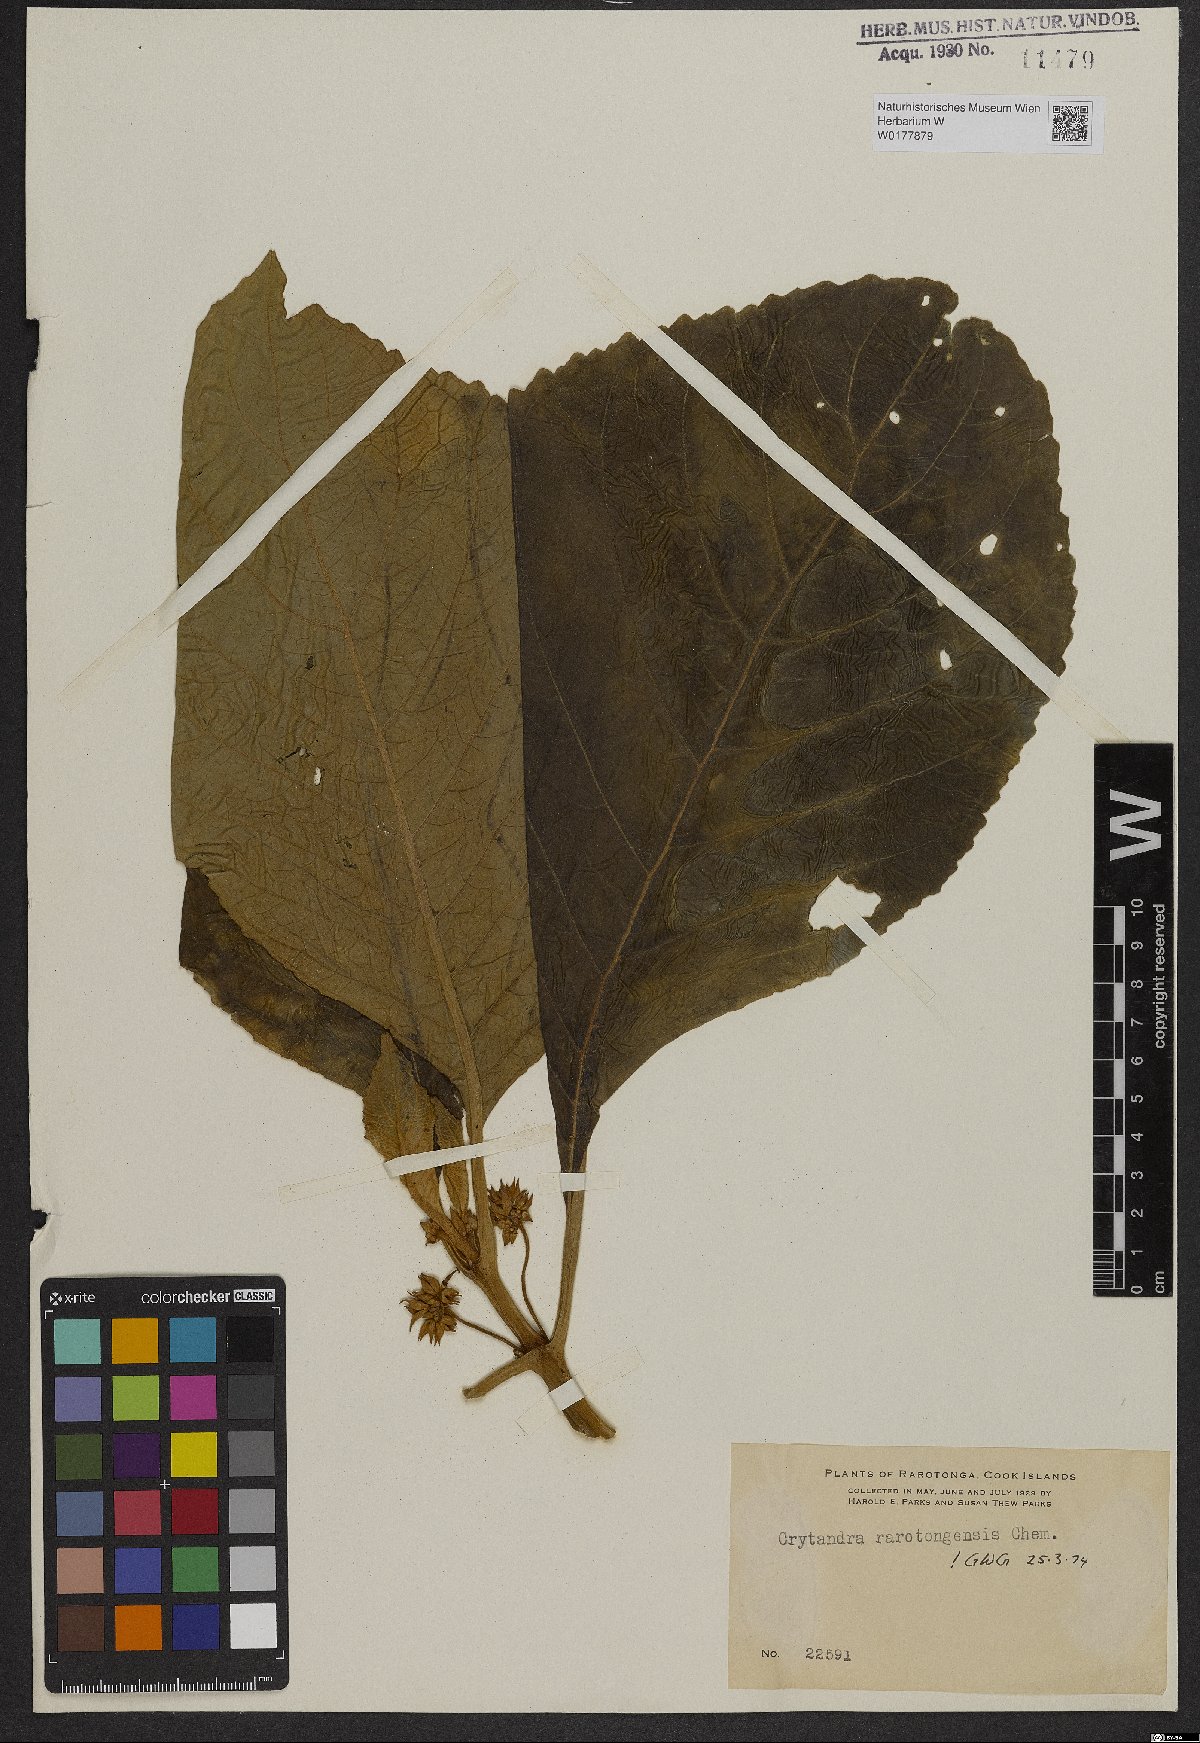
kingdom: Plantae
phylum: Tracheophyta
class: Magnoliopsida
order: Lamiales
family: Gesneriaceae
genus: Cyrtandra
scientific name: Cyrtandra
